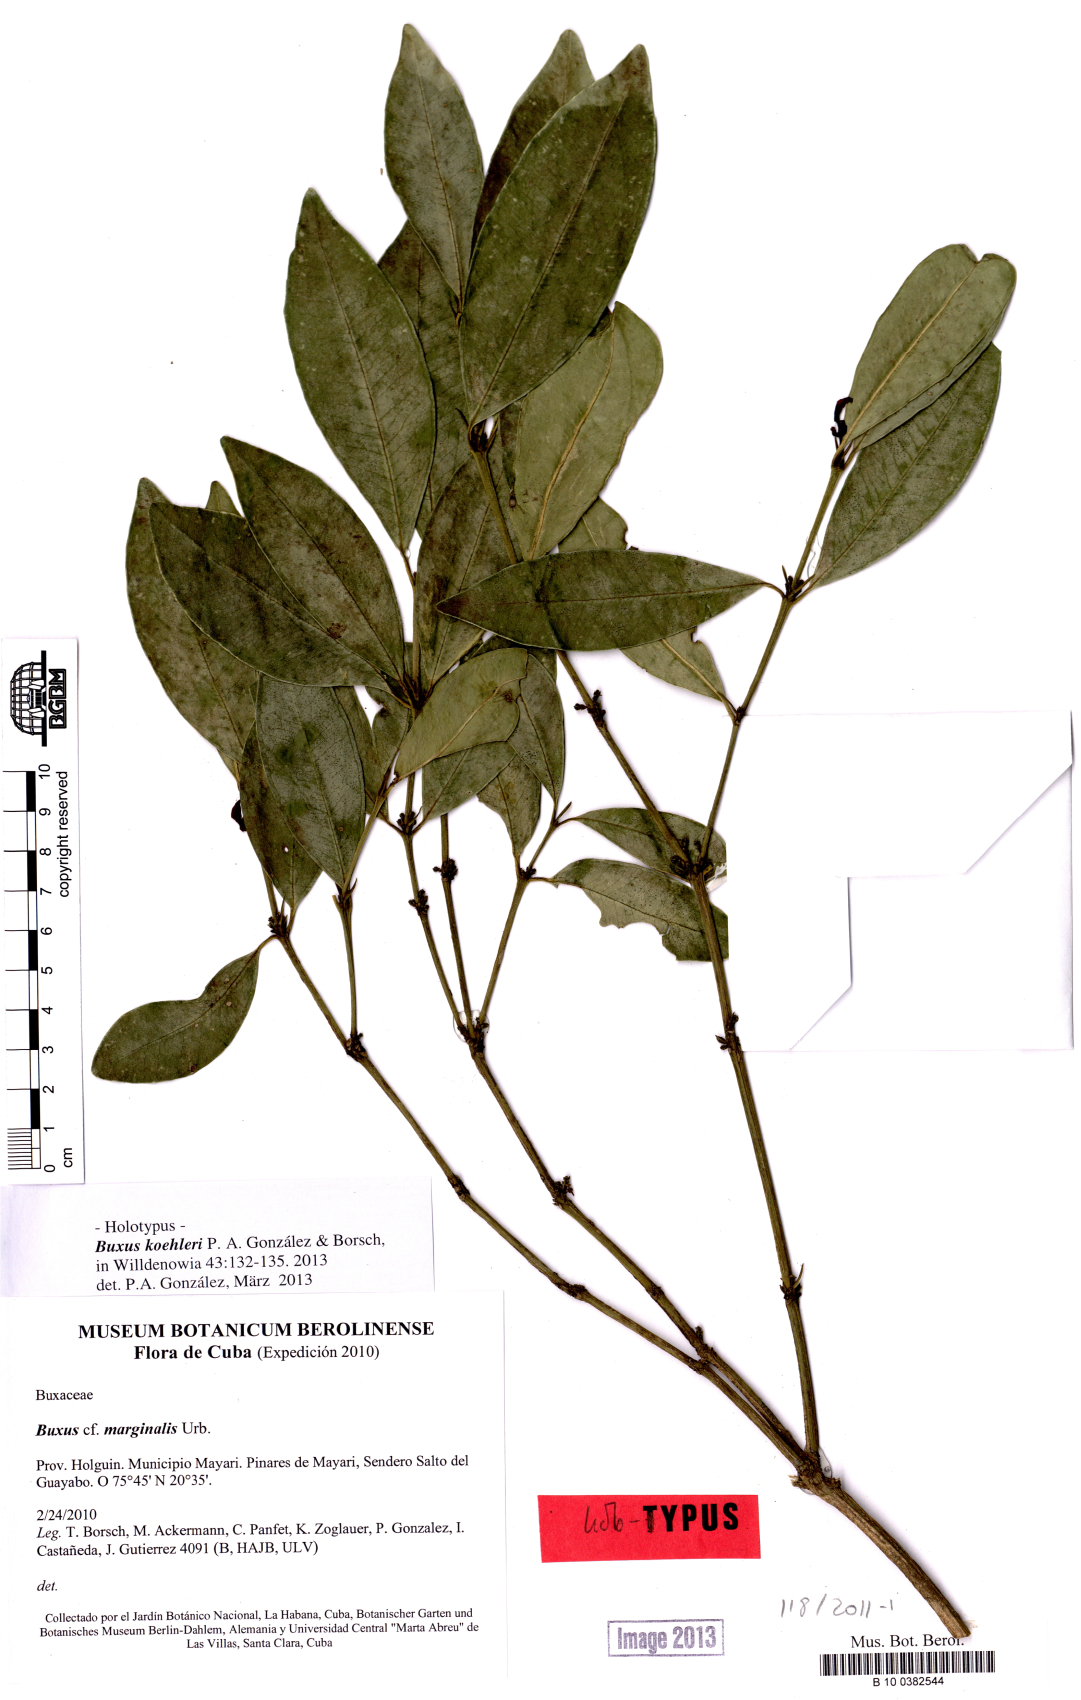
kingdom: Plantae
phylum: Tracheophyta
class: Magnoliopsida
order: Buxales
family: Buxaceae
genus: Buxus
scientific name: Buxus koehleri
